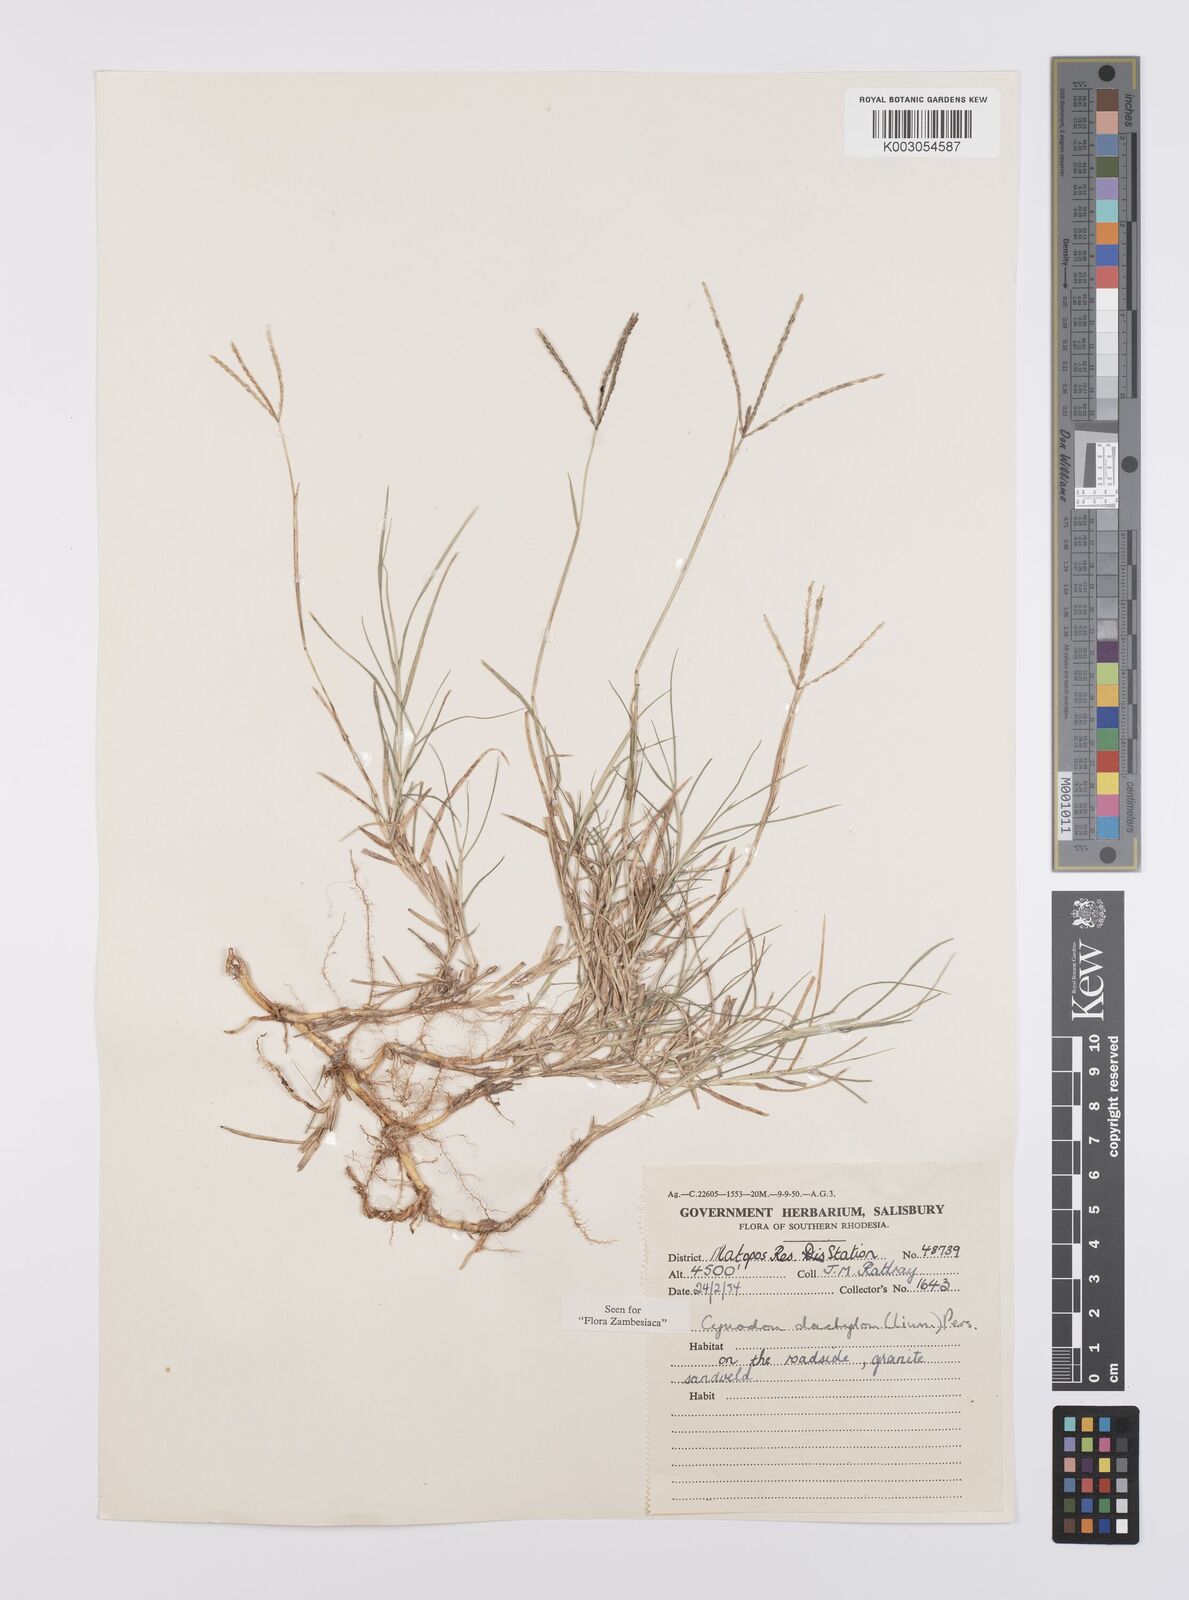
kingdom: Plantae
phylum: Tracheophyta
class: Liliopsida
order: Poales
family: Poaceae
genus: Cynodon
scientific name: Cynodon dactylon
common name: Bermuda grass
